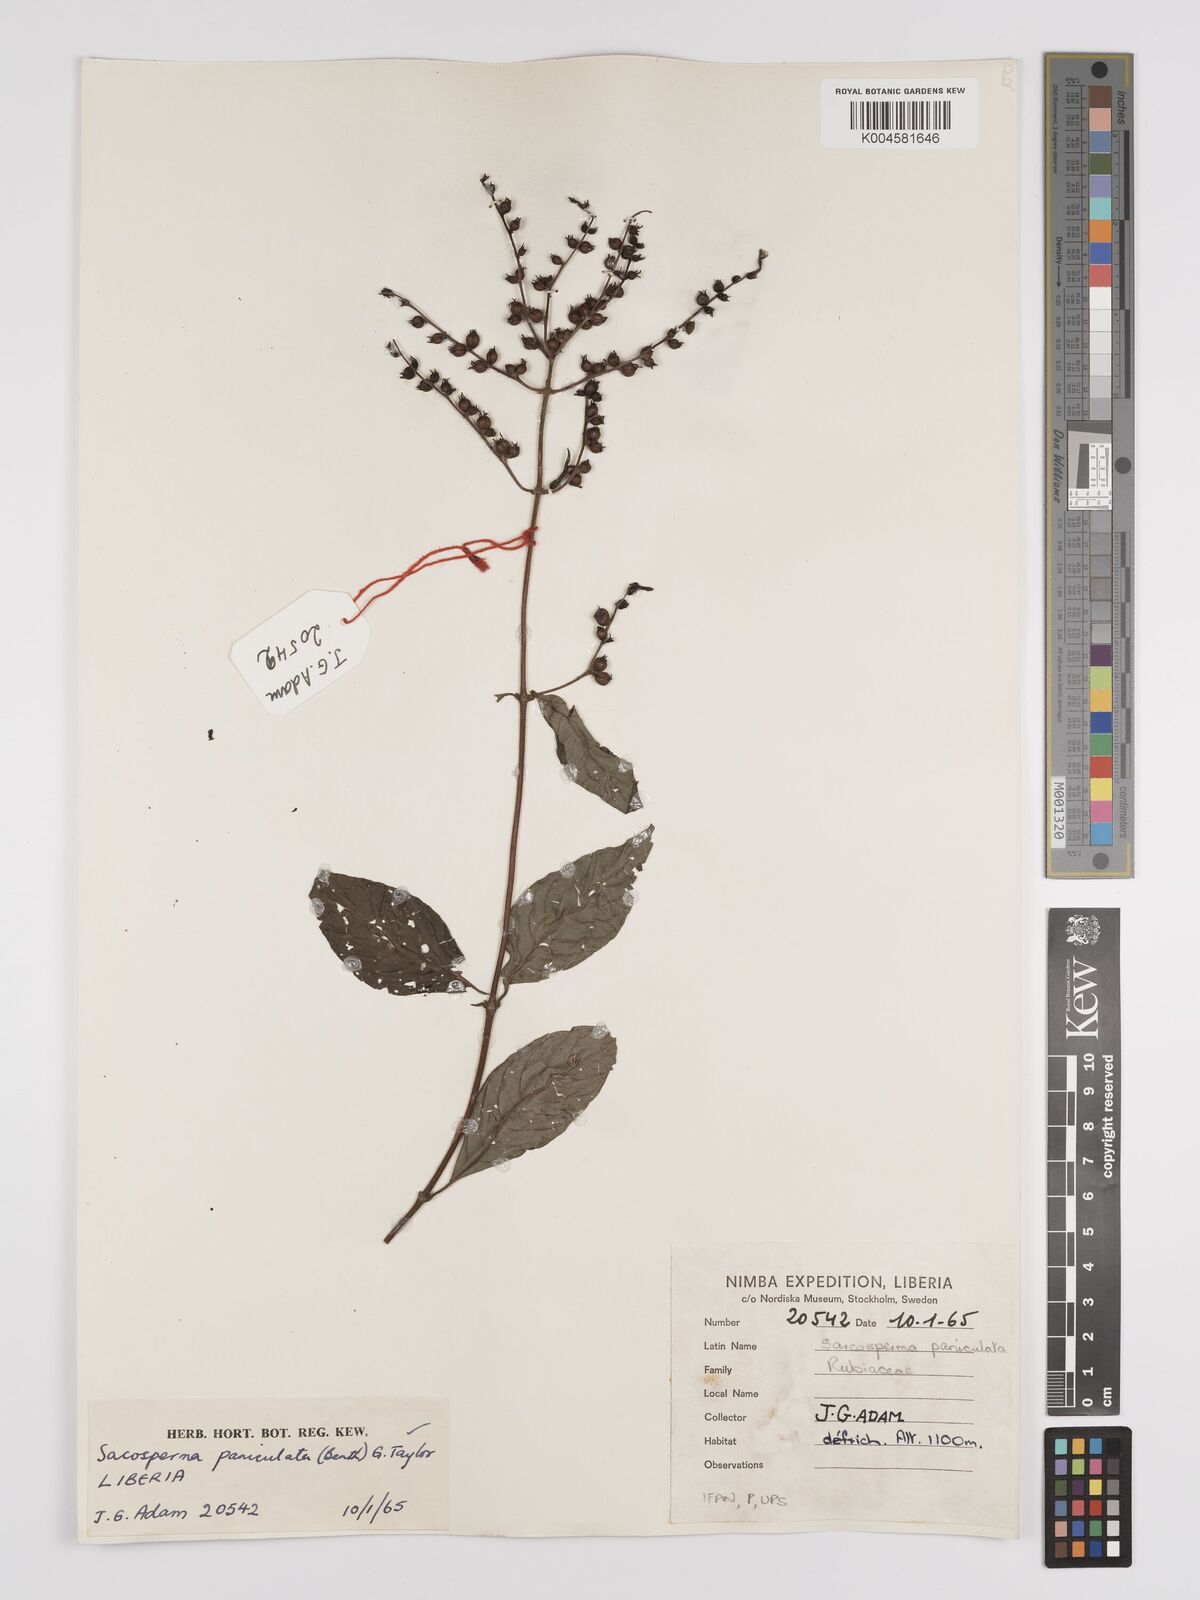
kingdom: Plantae
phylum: Tracheophyta
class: Magnoliopsida
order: Gentianales
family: Rubiaceae
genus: Sacosperma
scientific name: Sacosperma paniculatum
